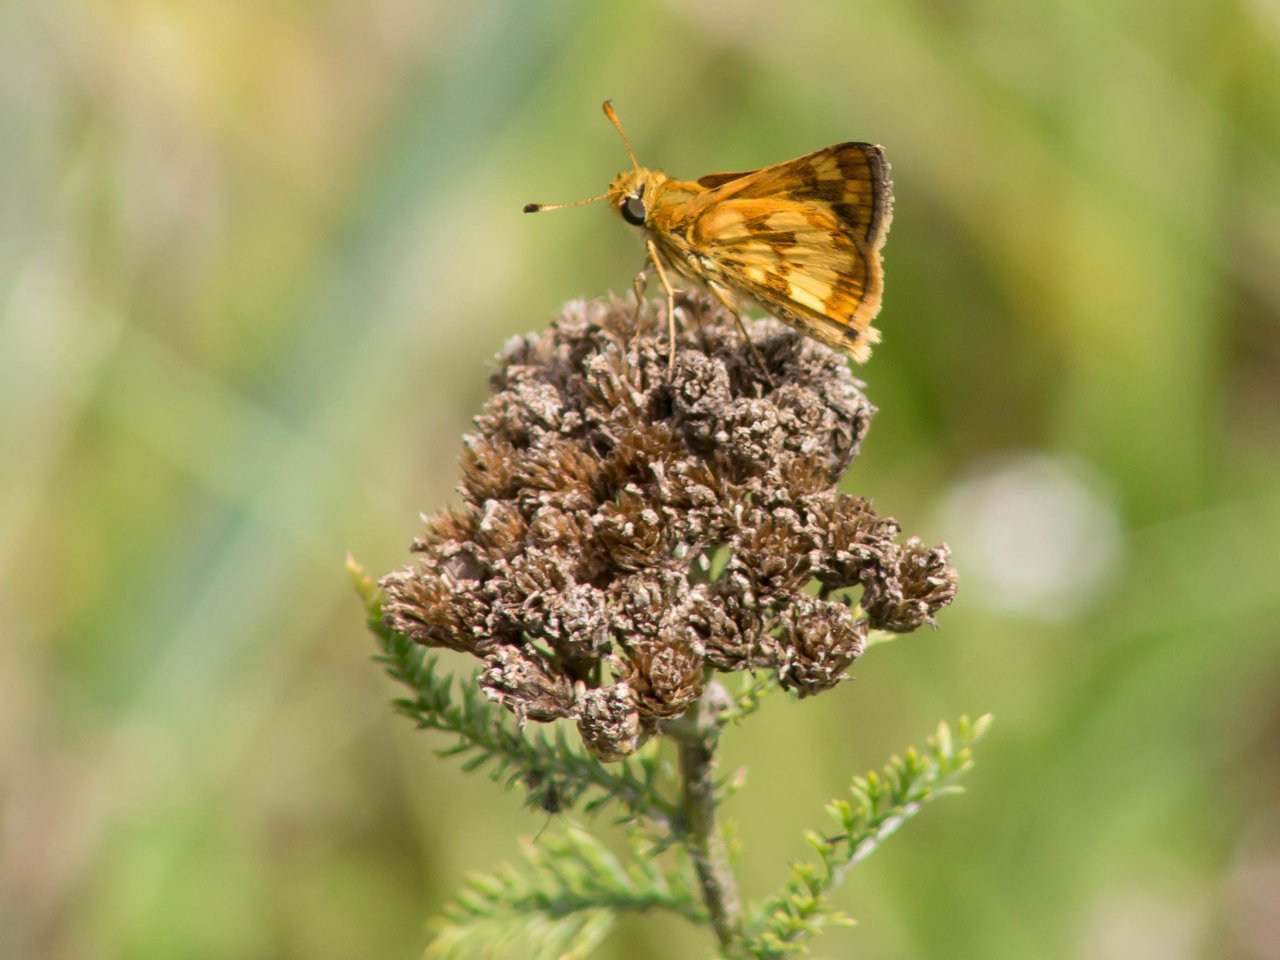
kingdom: Animalia
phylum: Arthropoda
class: Insecta
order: Lepidoptera
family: Hesperiidae
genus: Polites
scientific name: Polites coras
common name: Peck's Skipper
